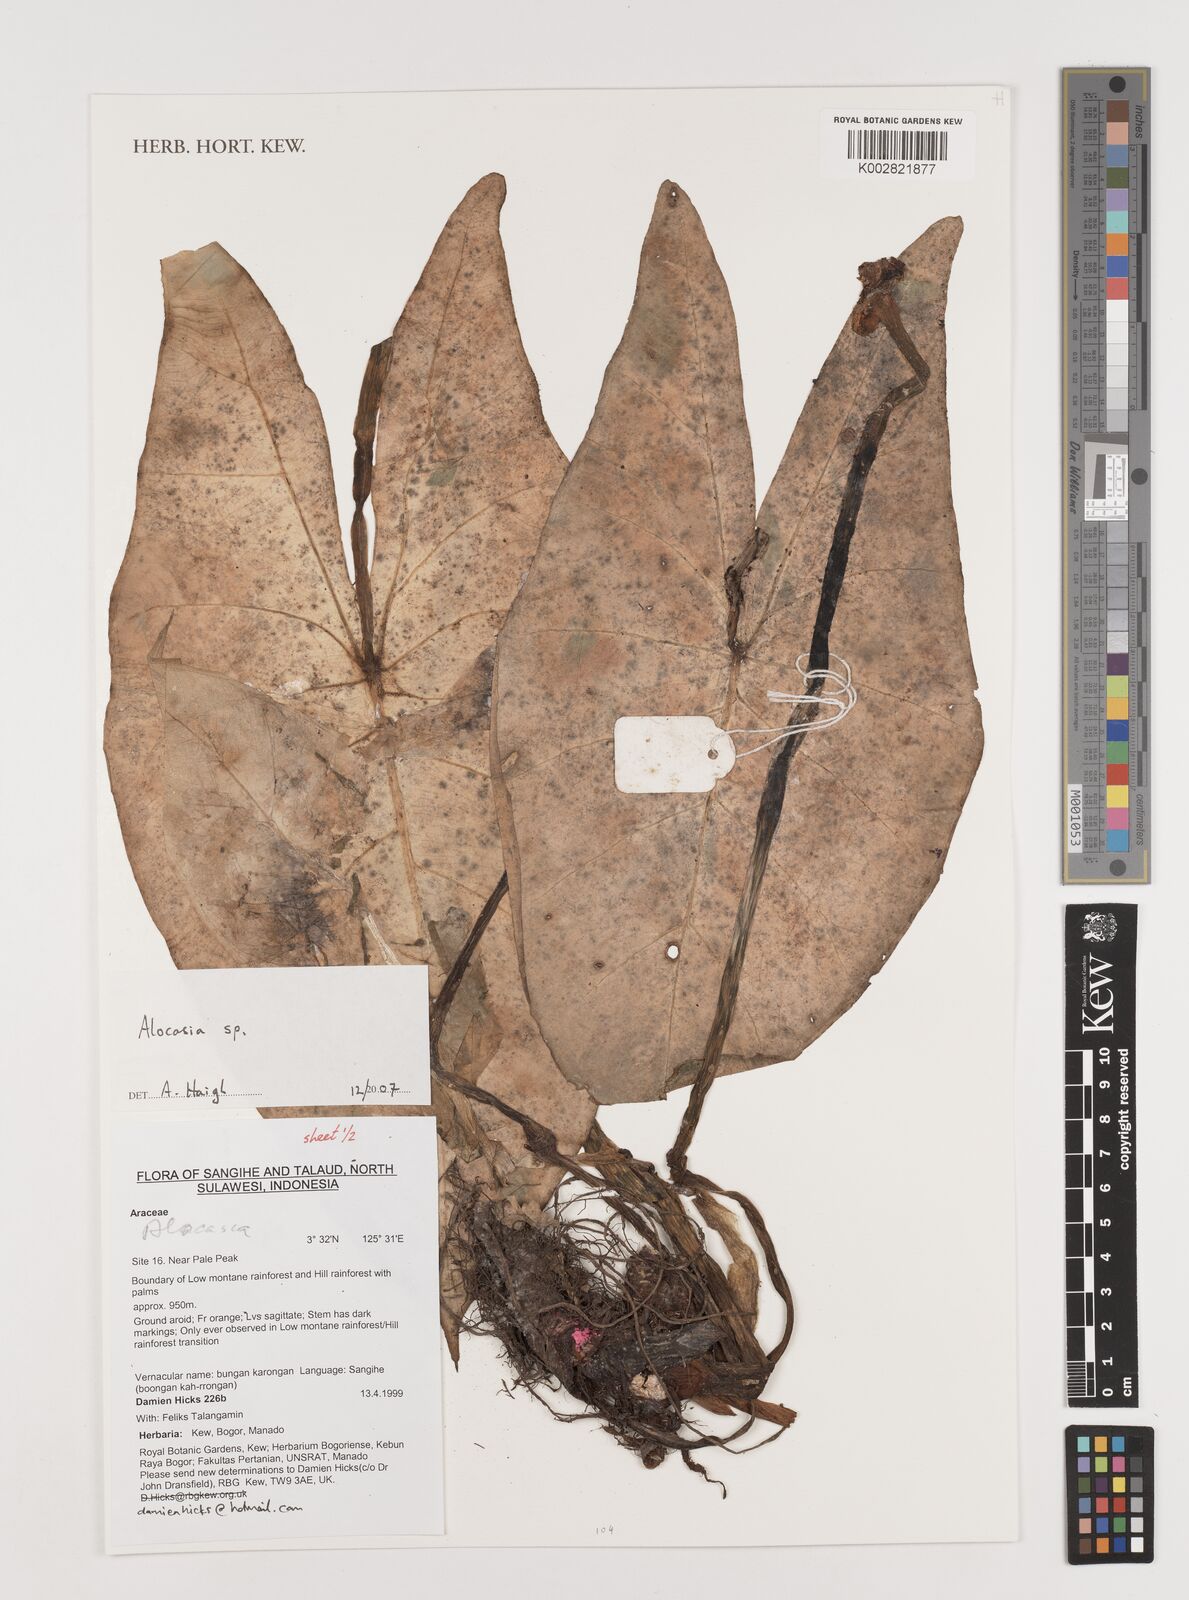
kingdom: Plantae
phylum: Tracheophyta
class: Liliopsida
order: Alismatales
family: Araceae
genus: Alocasia
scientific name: Alocasia
